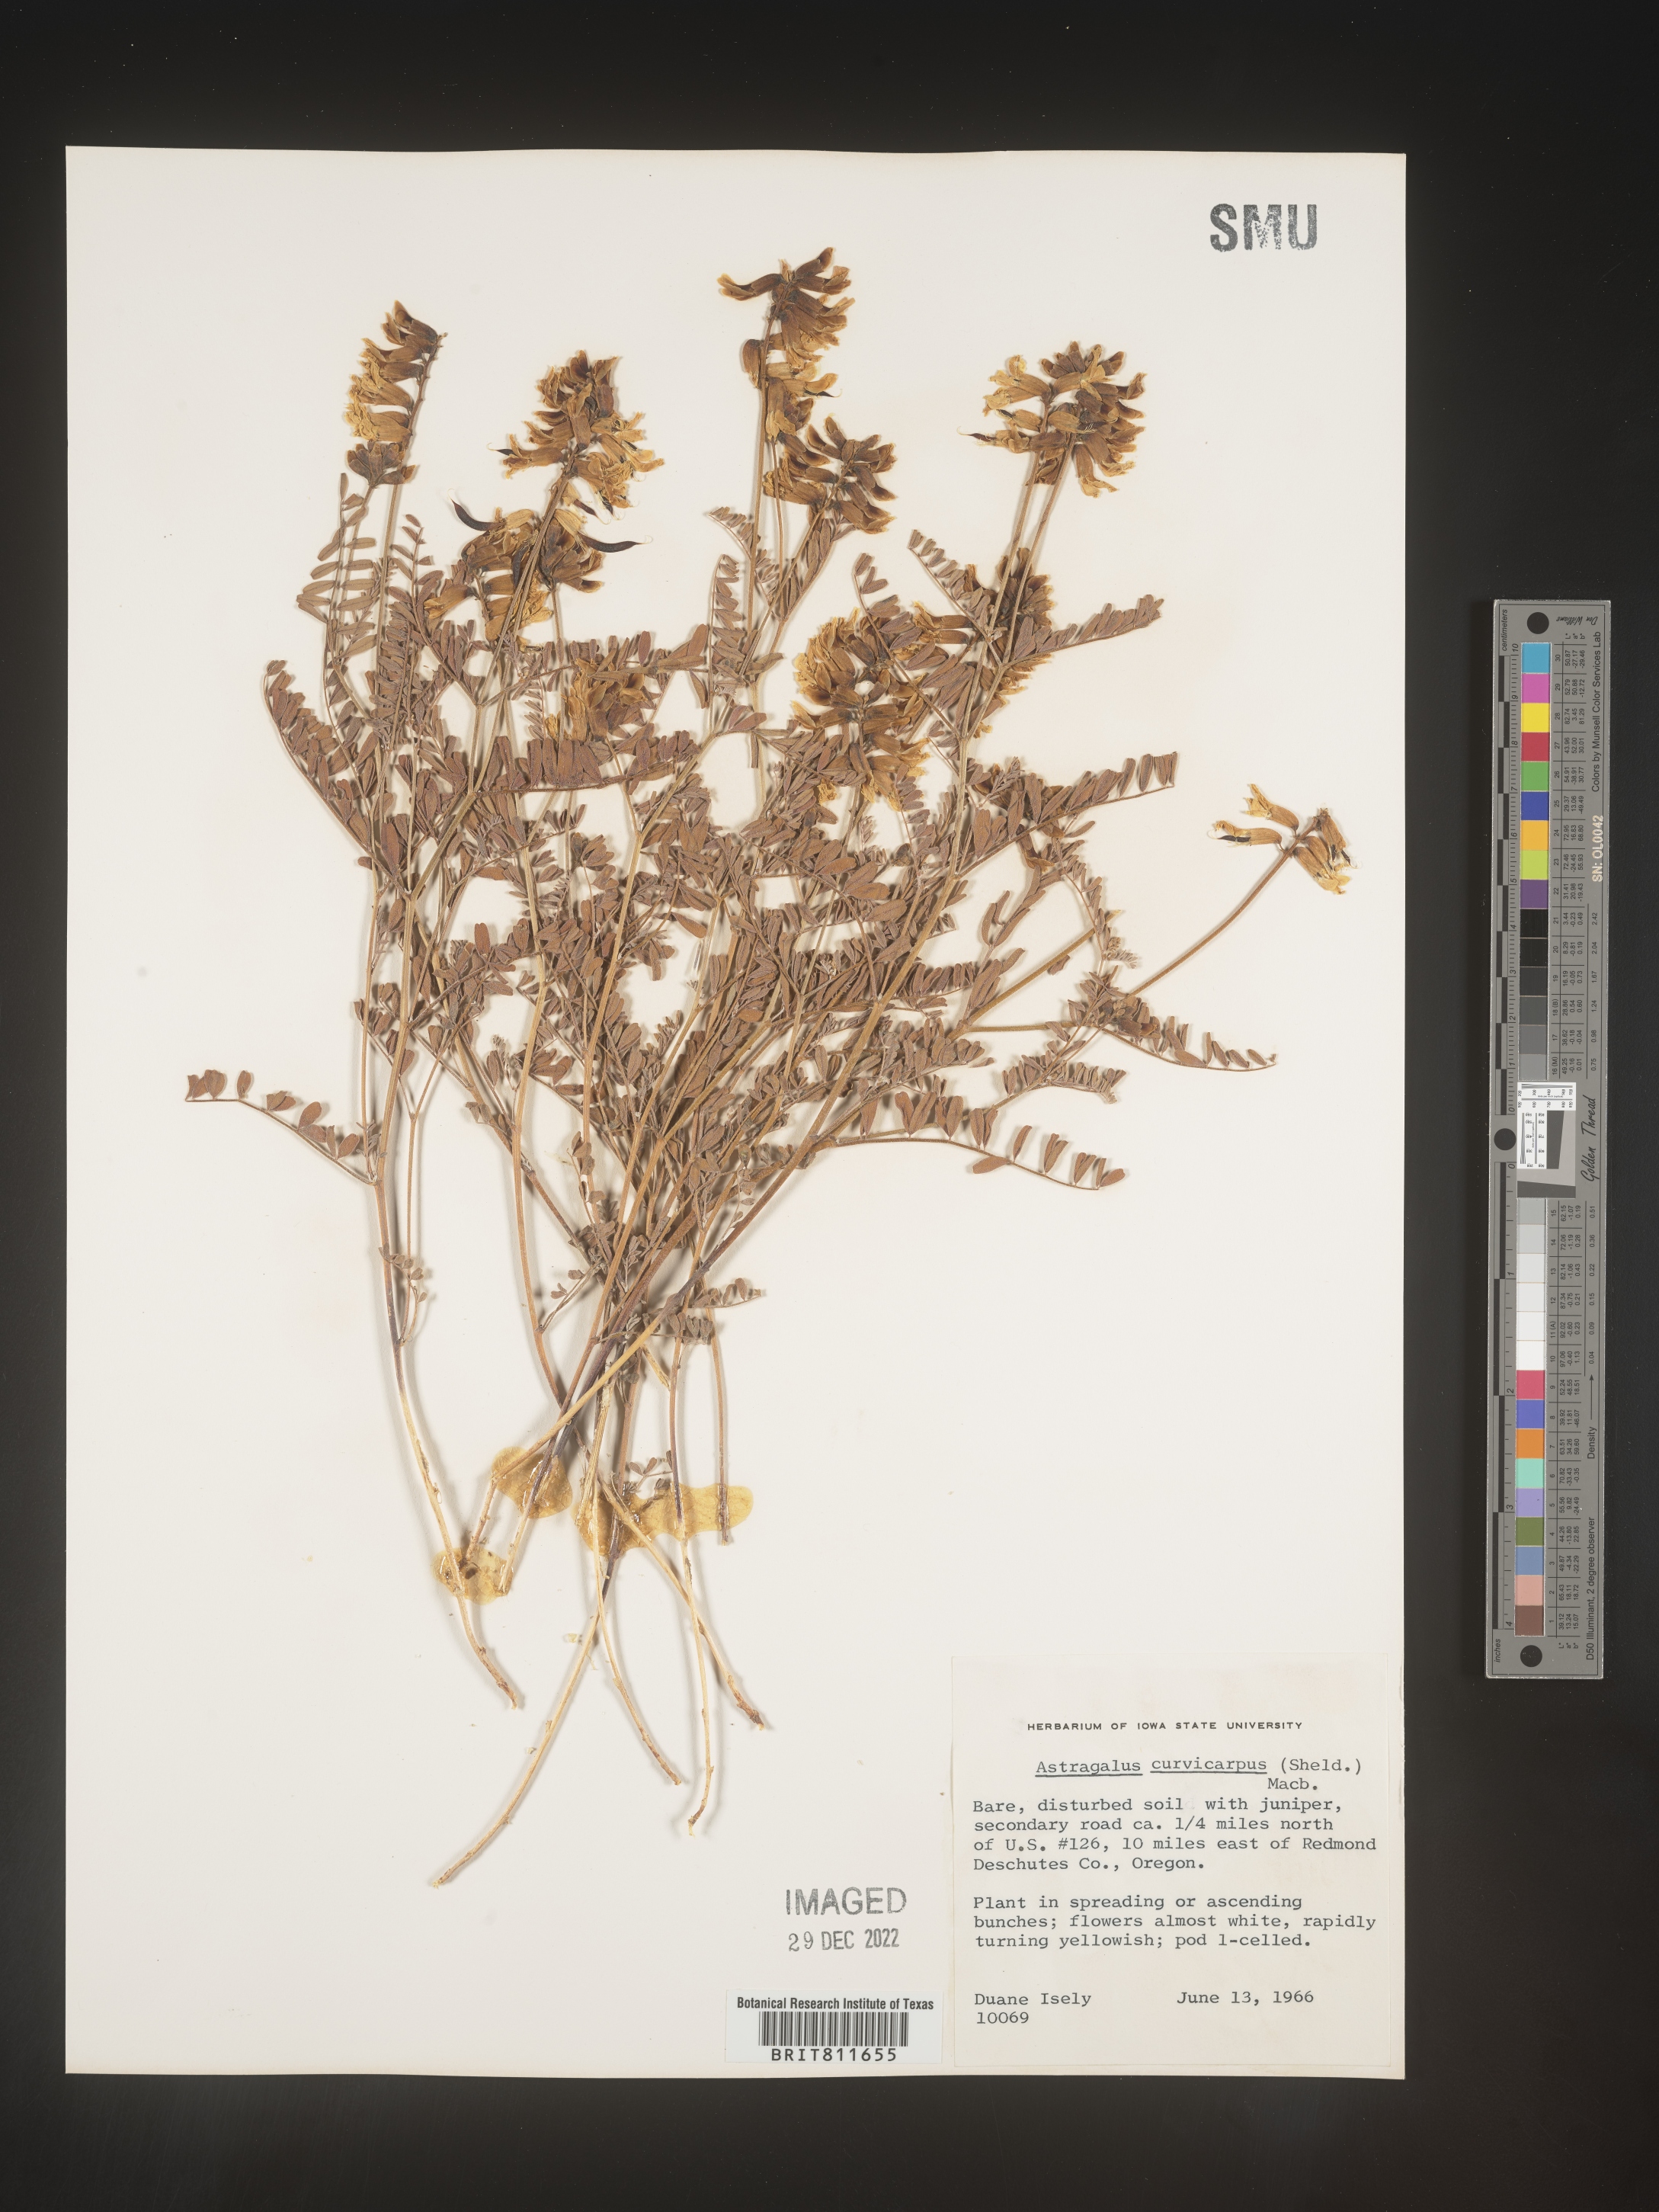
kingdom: Plantae
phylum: Tracheophyta
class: Magnoliopsida
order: Fabales
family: Fabaceae
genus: Astragalus
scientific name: Astragalus curvicarpus
